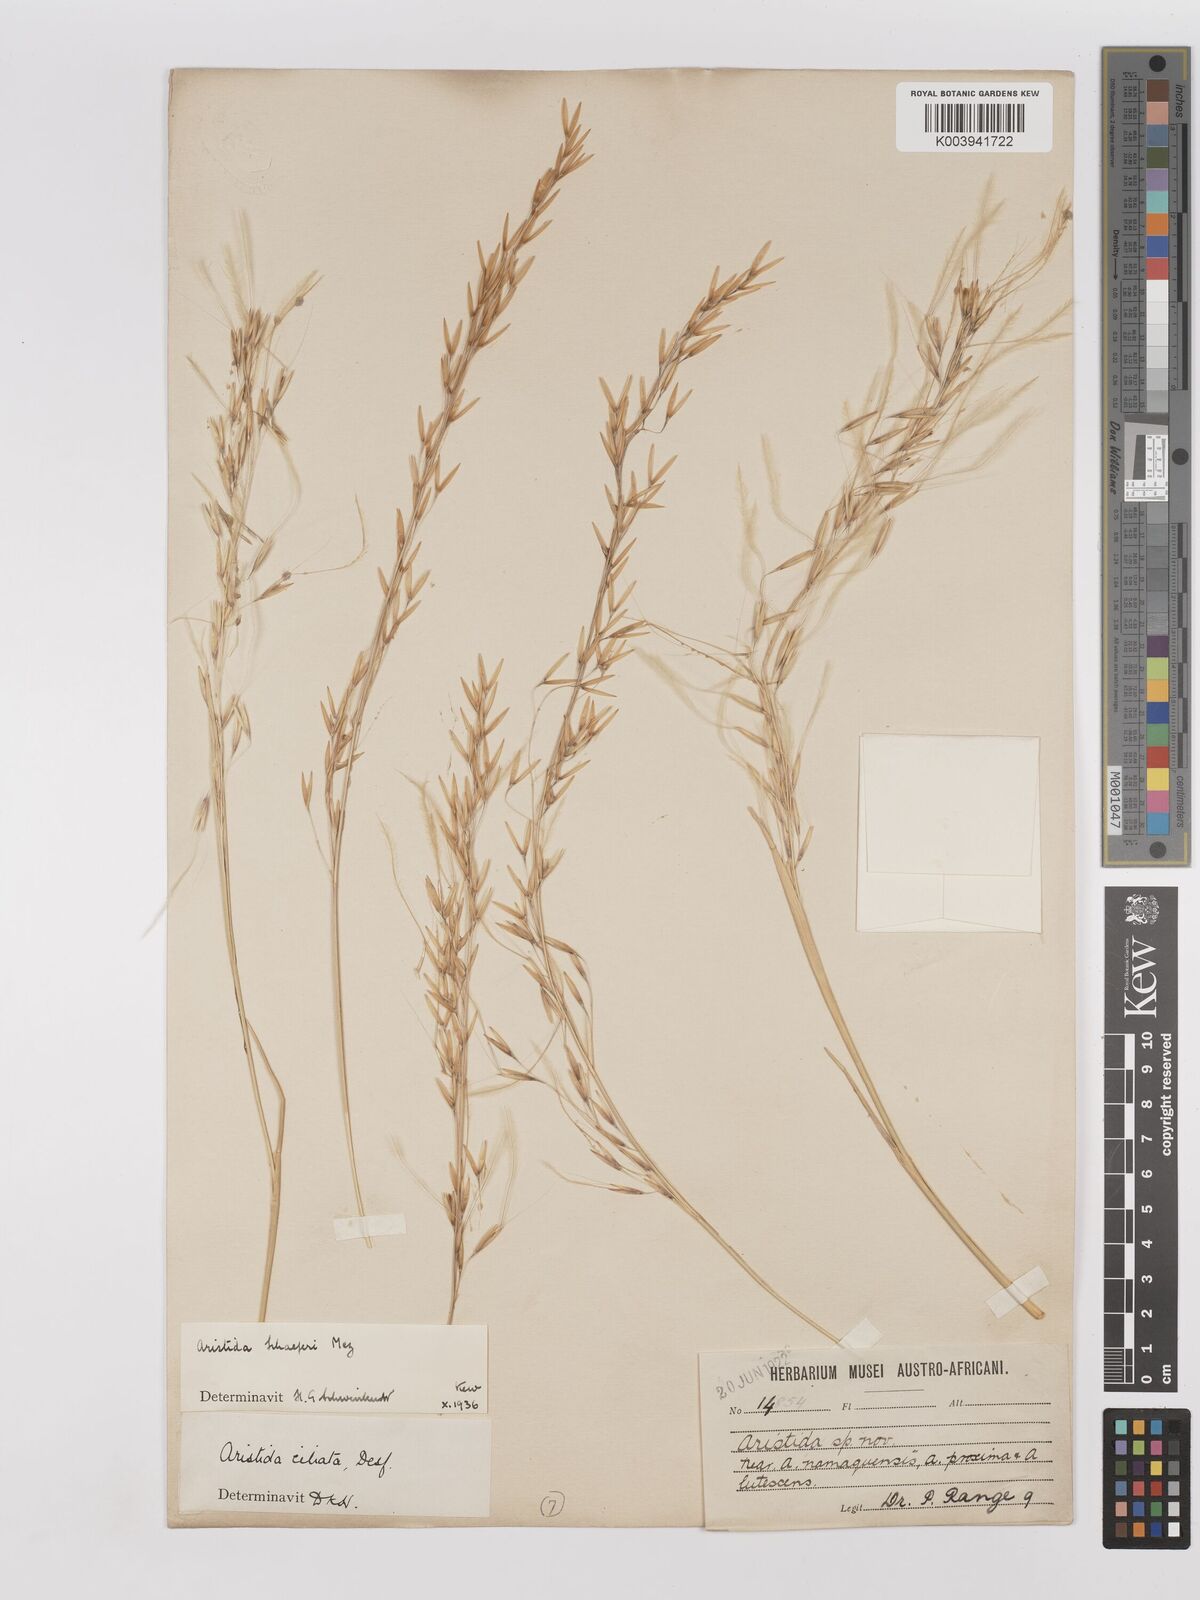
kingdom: Plantae
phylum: Tracheophyta
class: Liliopsida
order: Poales
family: Poaceae
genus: Stipagrostis
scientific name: Stipagrostis schaeferi
